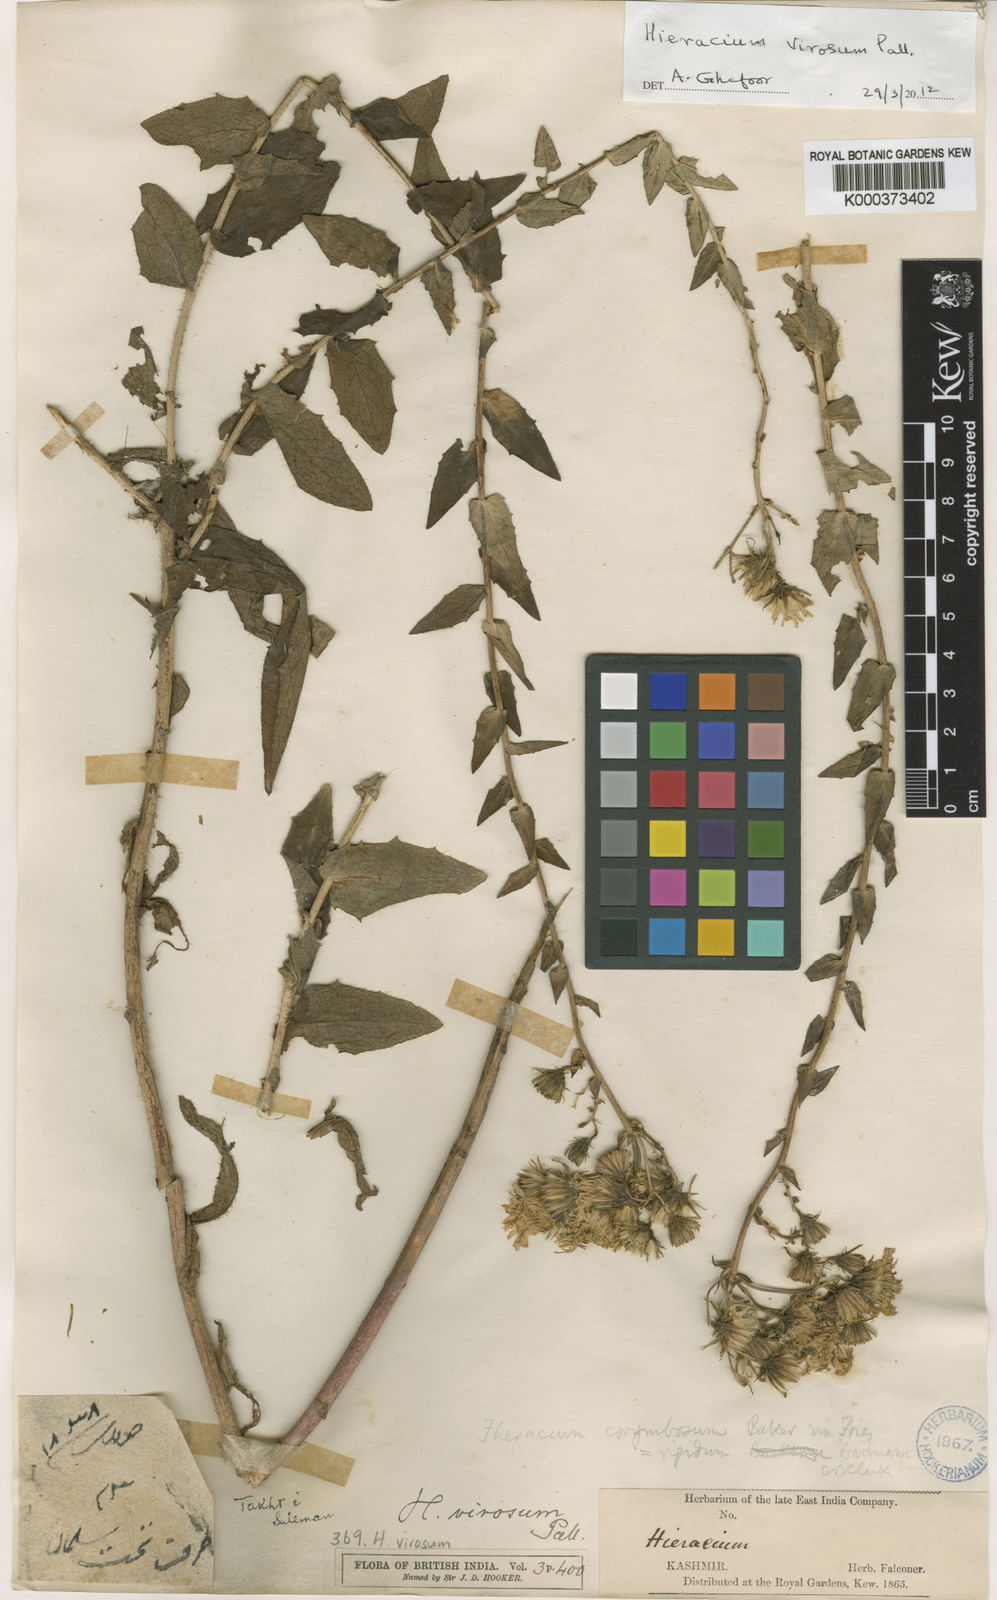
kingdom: Plantae
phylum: Tracheophyta
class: Magnoliopsida
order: Asterales
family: Asteraceae
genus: Hieracium
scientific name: Hieracium virosum
